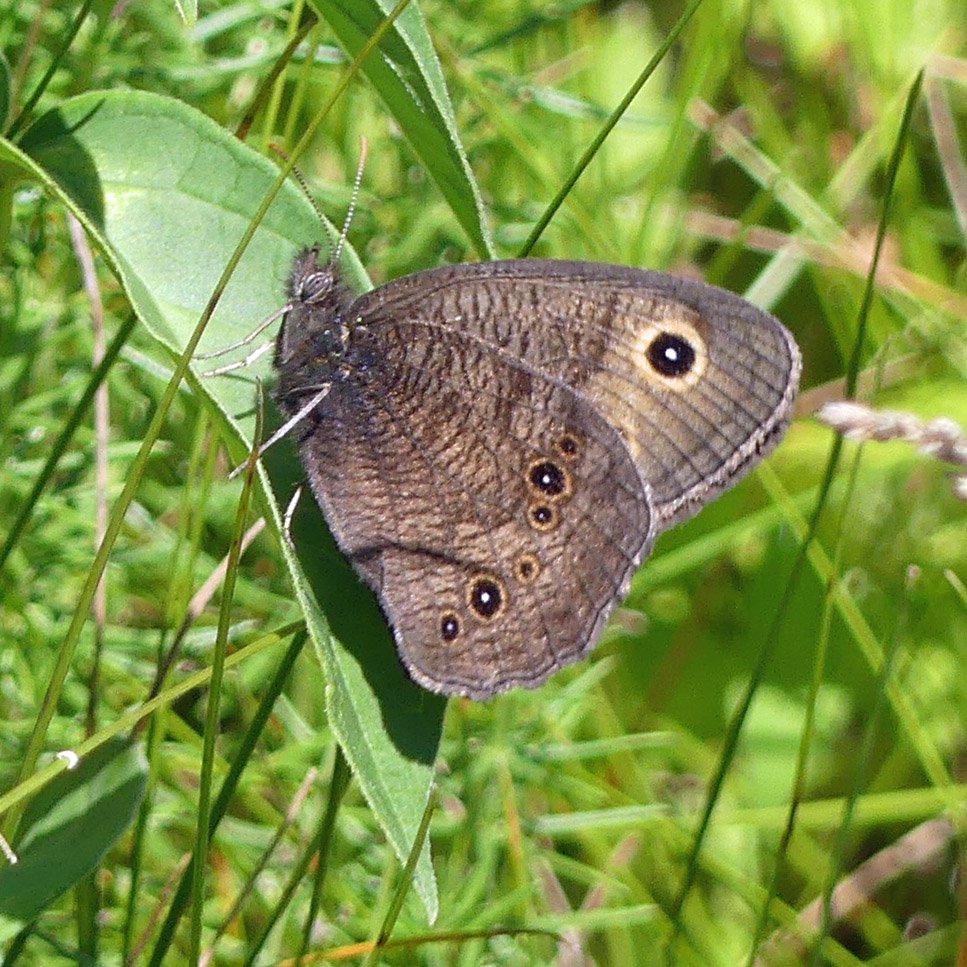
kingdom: Animalia
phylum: Arthropoda
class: Insecta
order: Lepidoptera
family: Nymphalidae
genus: Cercyonis
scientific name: Cercyonis pegala
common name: Common Wood-Nymph
